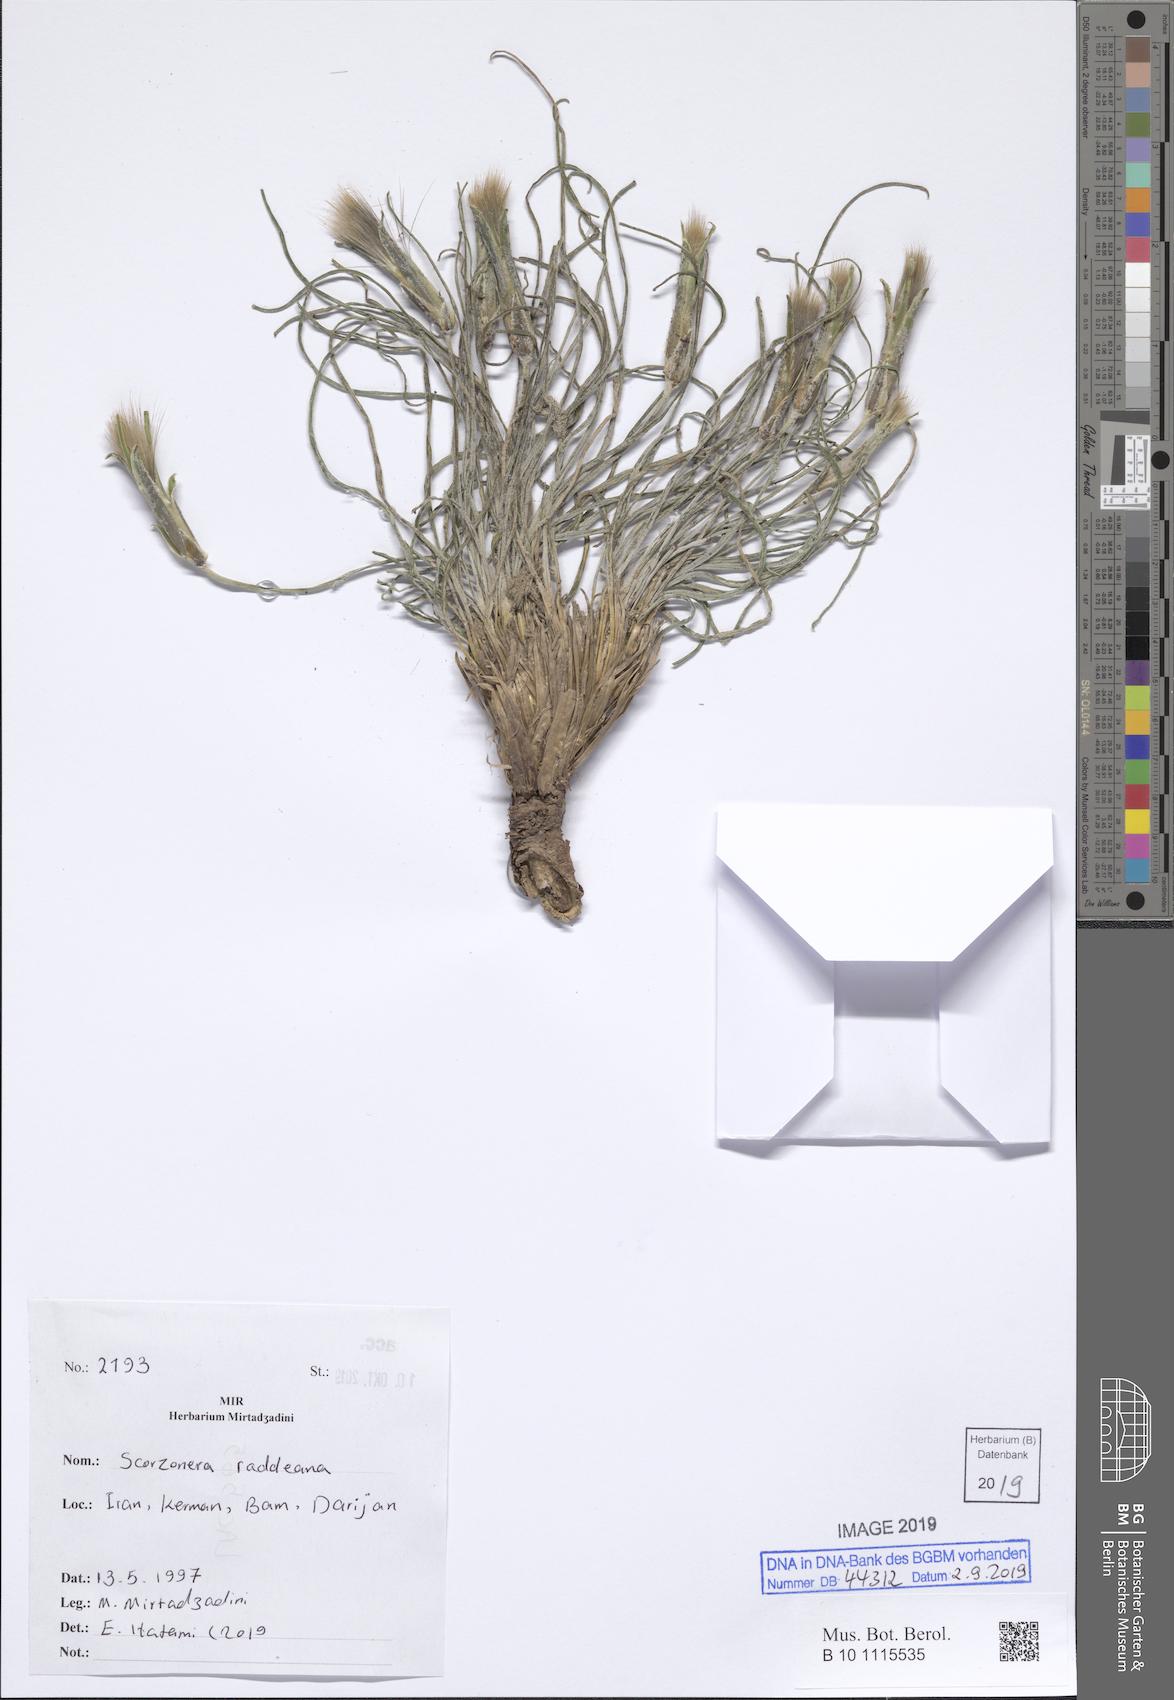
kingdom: Plantae
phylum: Tracheophyta
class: Magnoliopsida
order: Asterales
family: Asteraceae
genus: Candollea
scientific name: Candollea raddeana
